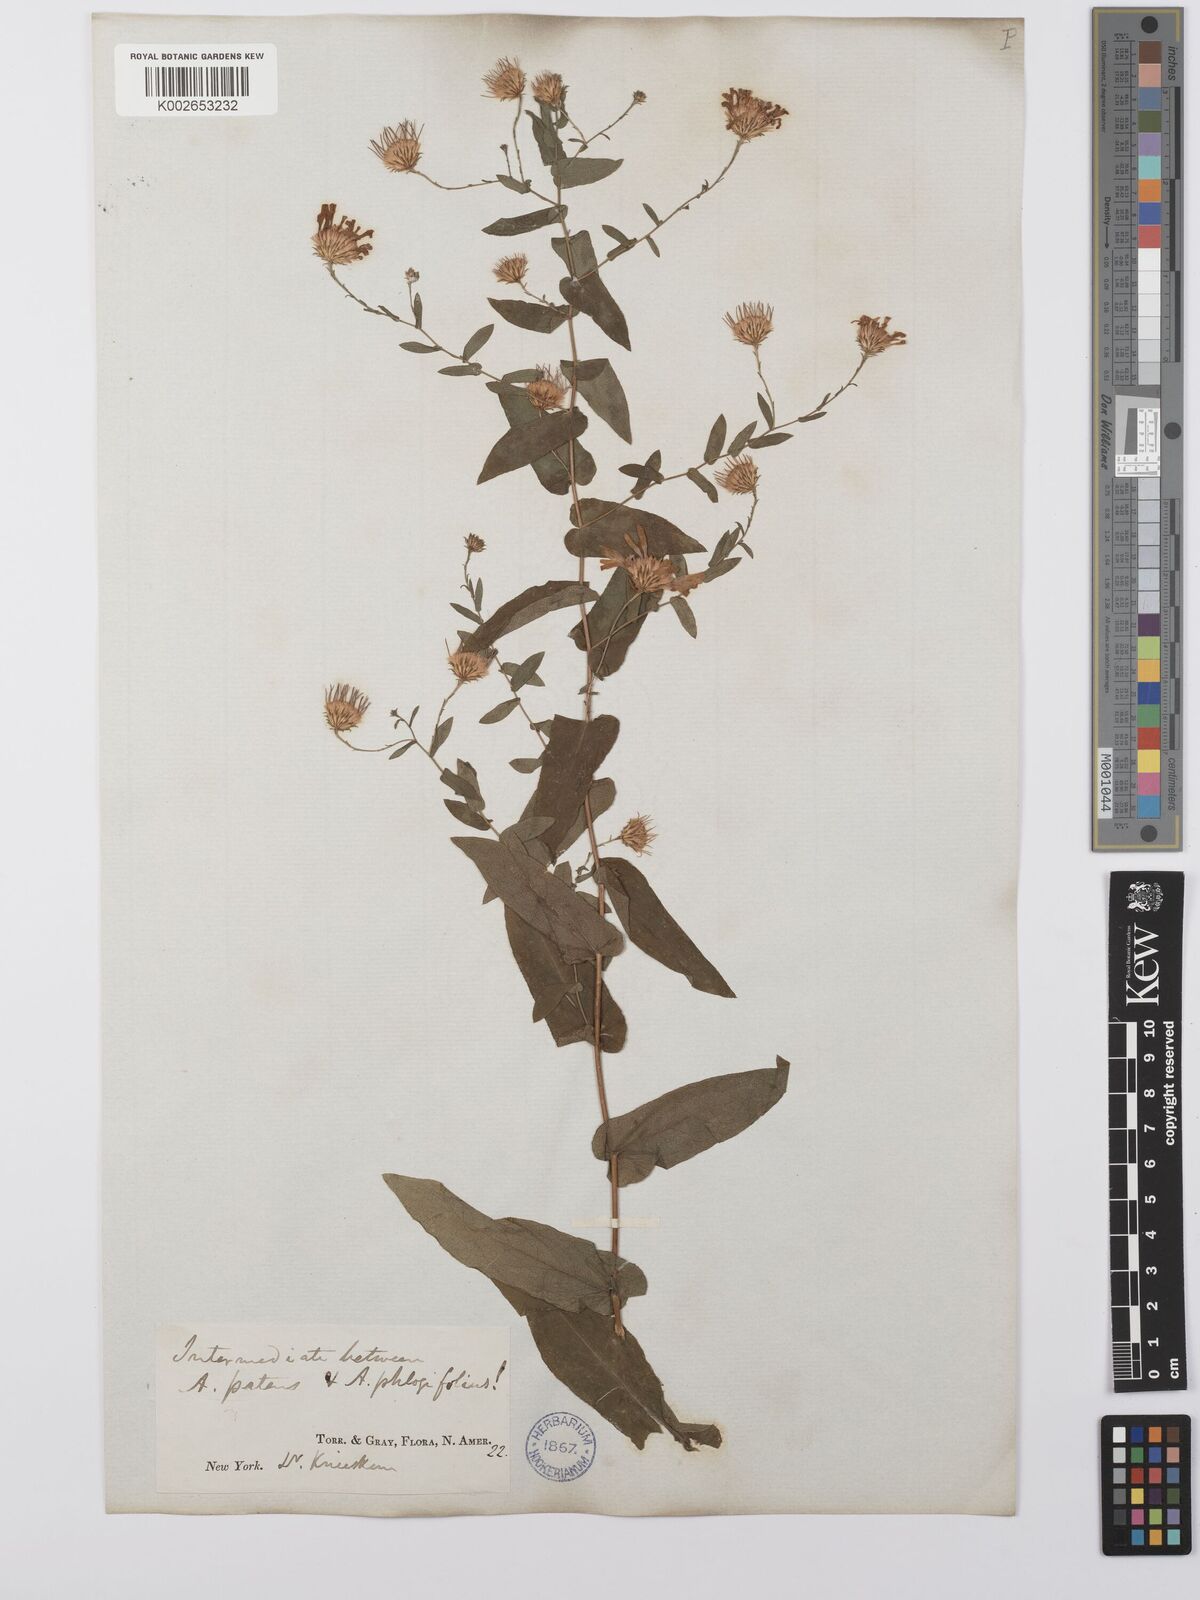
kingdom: Plantae
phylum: Tracheophyta
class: Magnoliopsida
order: Asterales
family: Asteraceae
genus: Symphyotrichum
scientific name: Symphyotrichum phlogifolium
